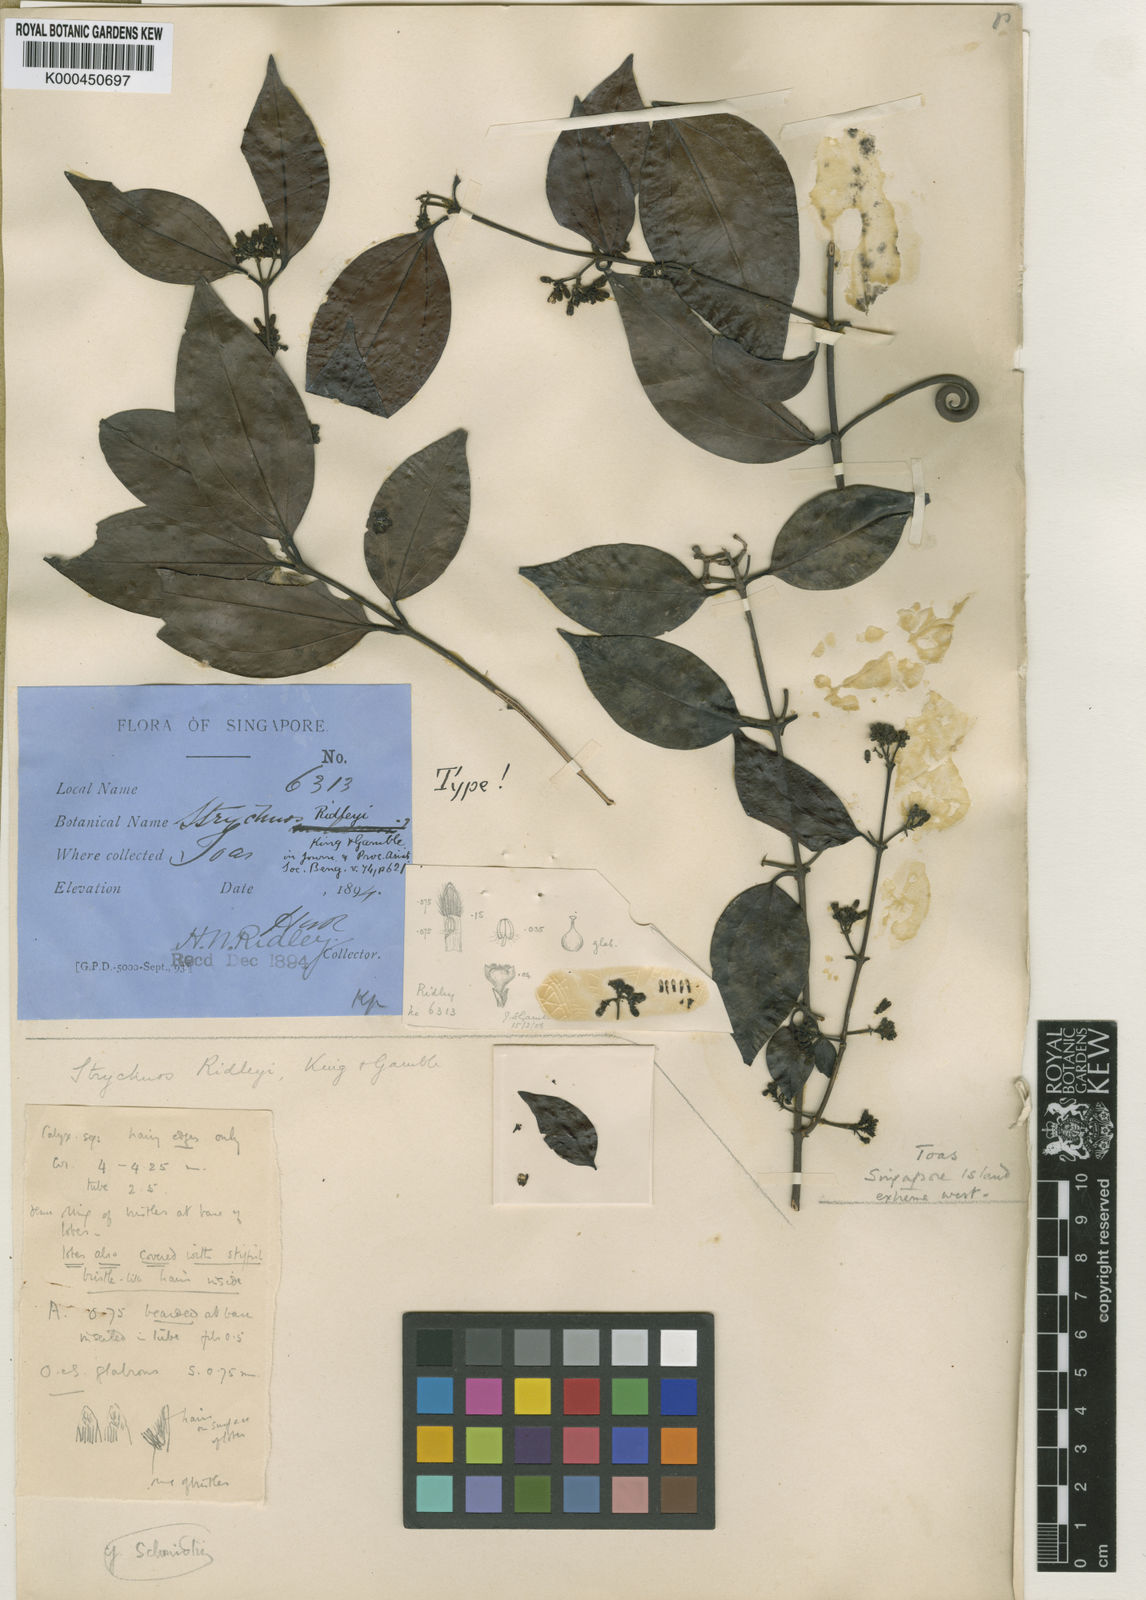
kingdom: Plantae
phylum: Tracheophyta
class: Magnoliopsida
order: Gentianales
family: Loganiaceae
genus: Strychnos
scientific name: Strychnos ridleyi
